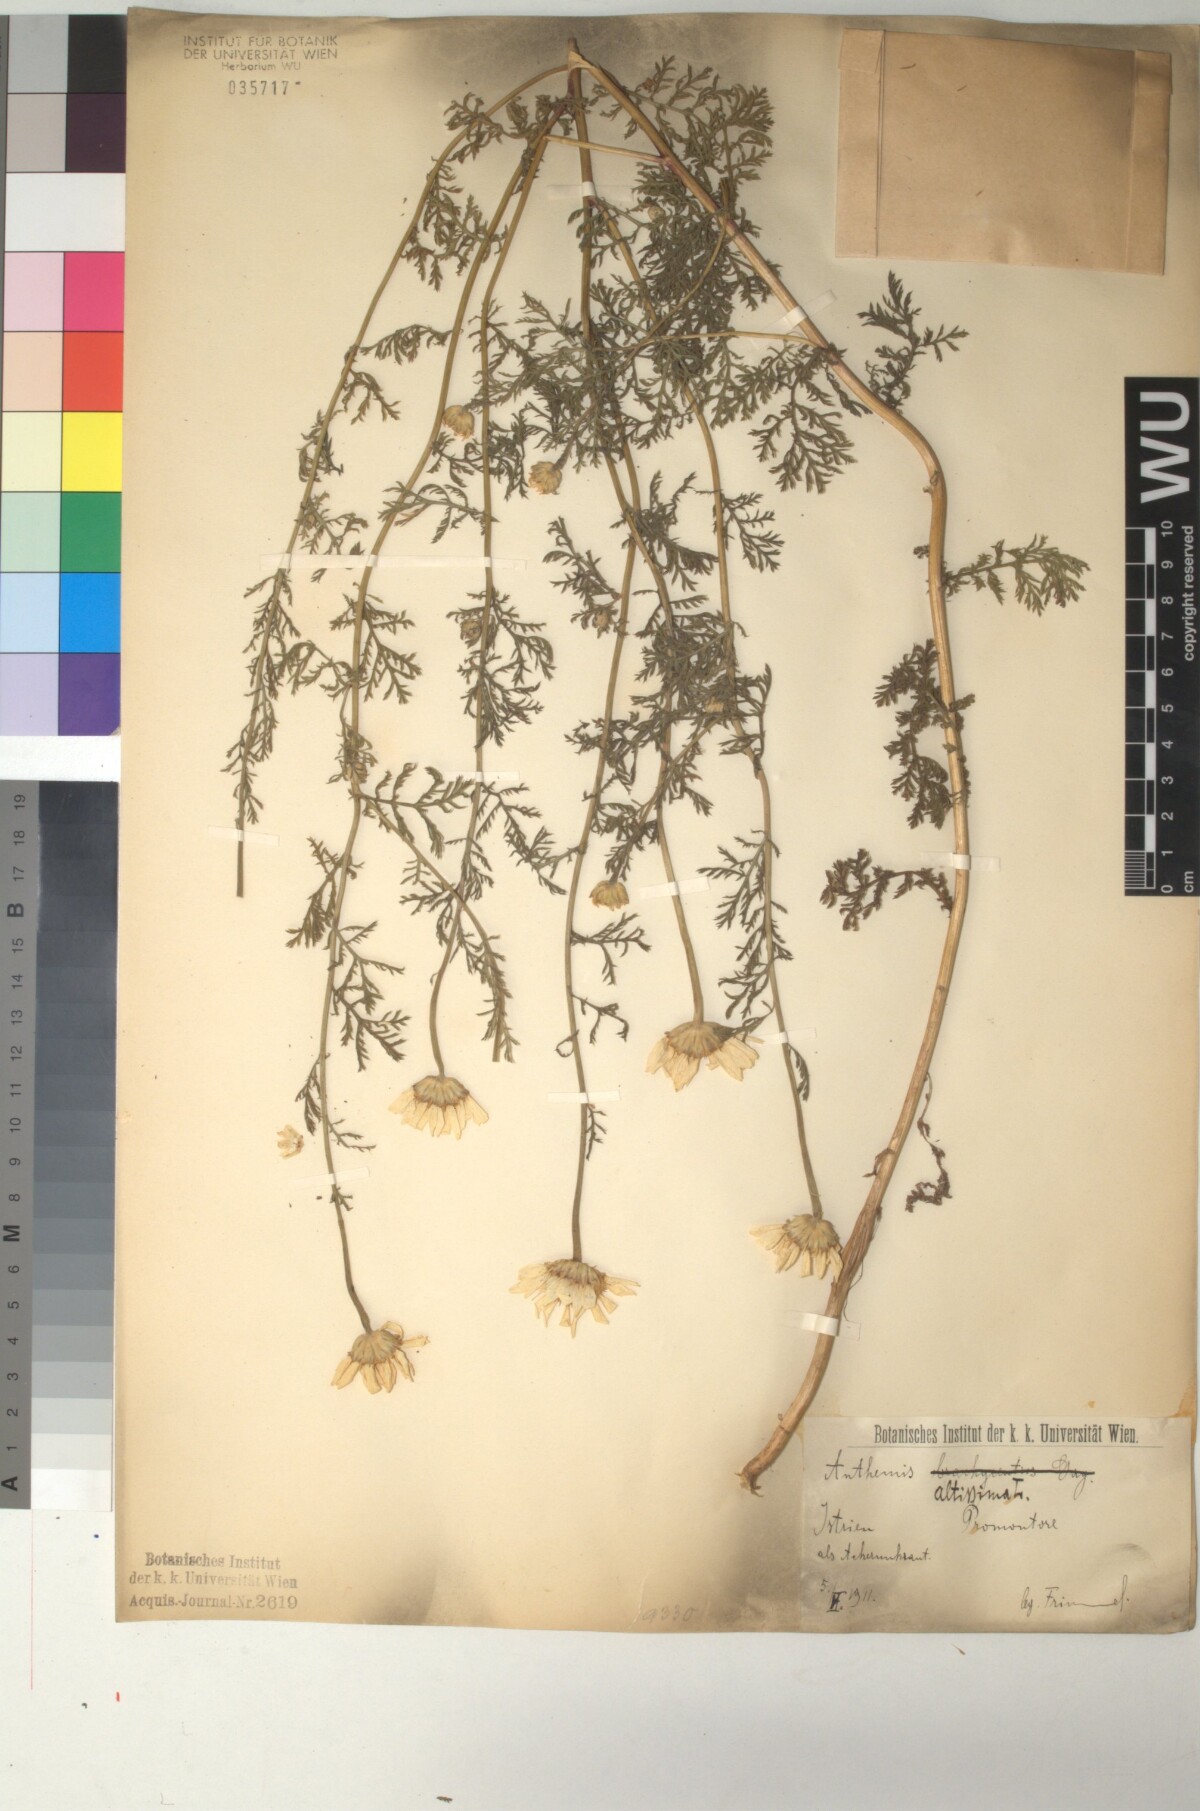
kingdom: Plantae
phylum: Tracheophyta
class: Magnoliopsida
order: Asterales
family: Asteraceae
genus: Cota
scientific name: Cota altissima
